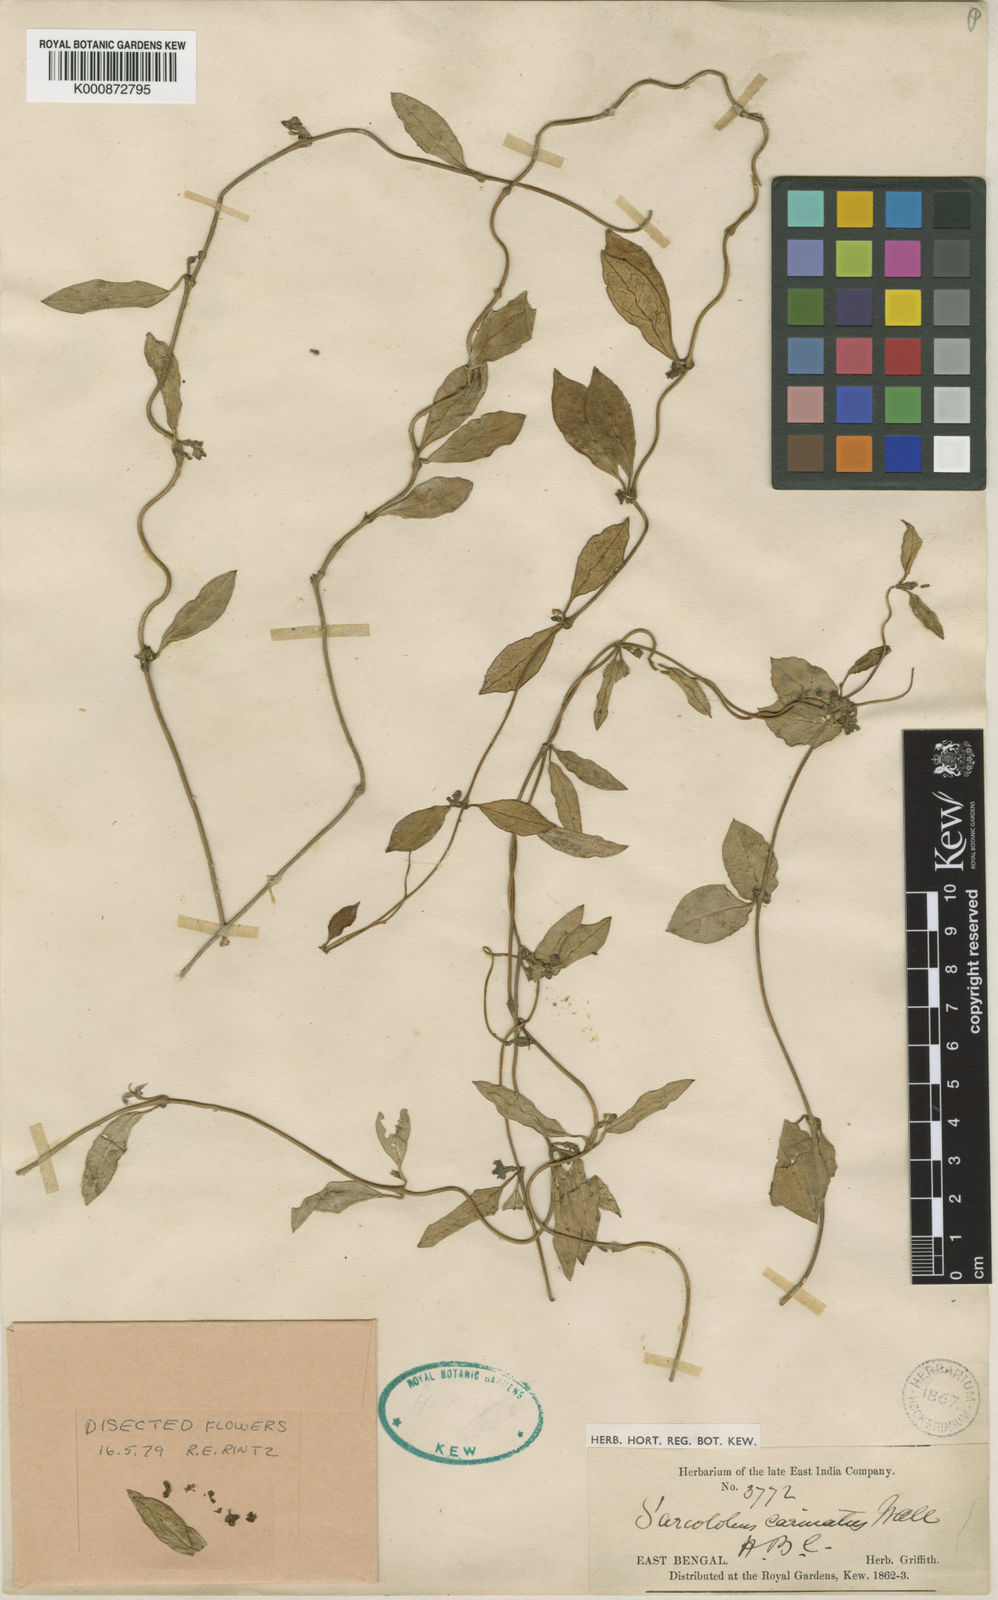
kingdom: Plantae
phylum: Tracheophyta
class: Magnoliopsida
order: Gentianales
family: Apocynaceae
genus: Sarcolobus
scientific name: Sarcolobus globosus
